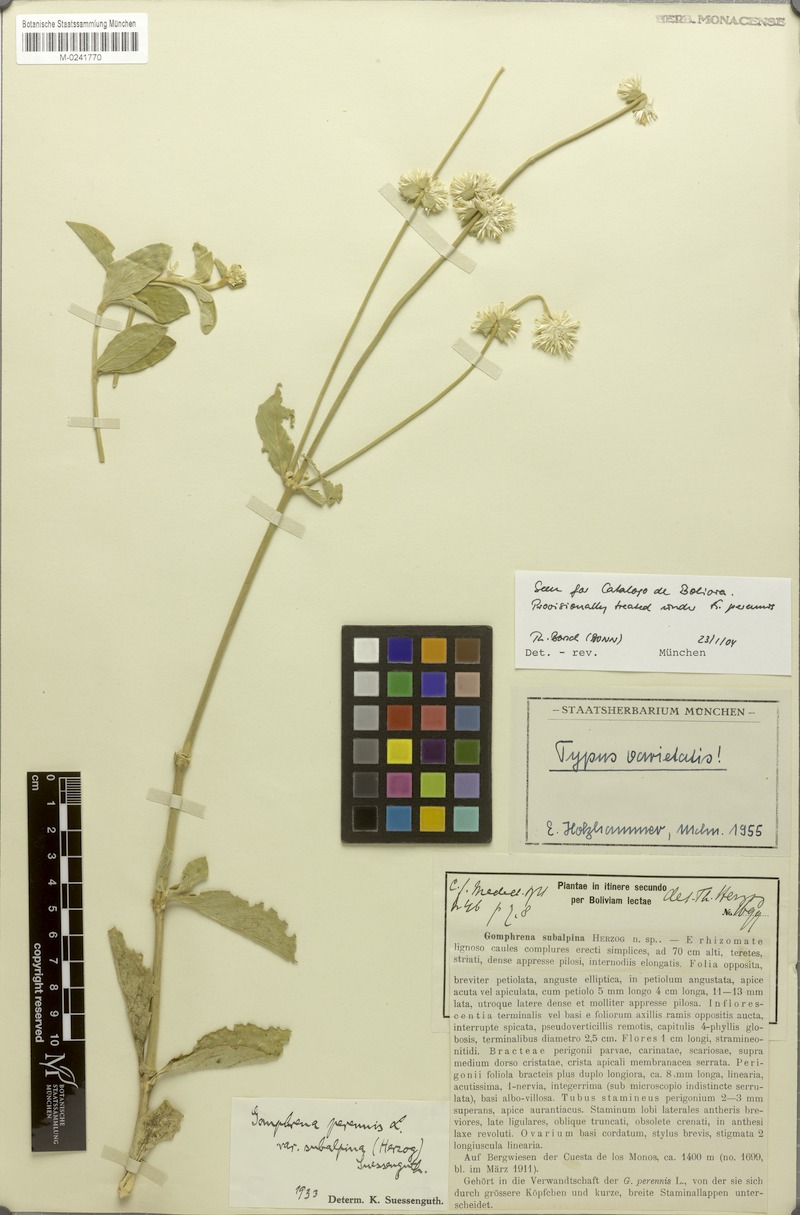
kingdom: Plantae
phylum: Tracheophyta
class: Magnoliopsida
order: Caryophyllales
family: Amaranthaceae
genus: Gomphrena
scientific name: Gomphrena perennis
